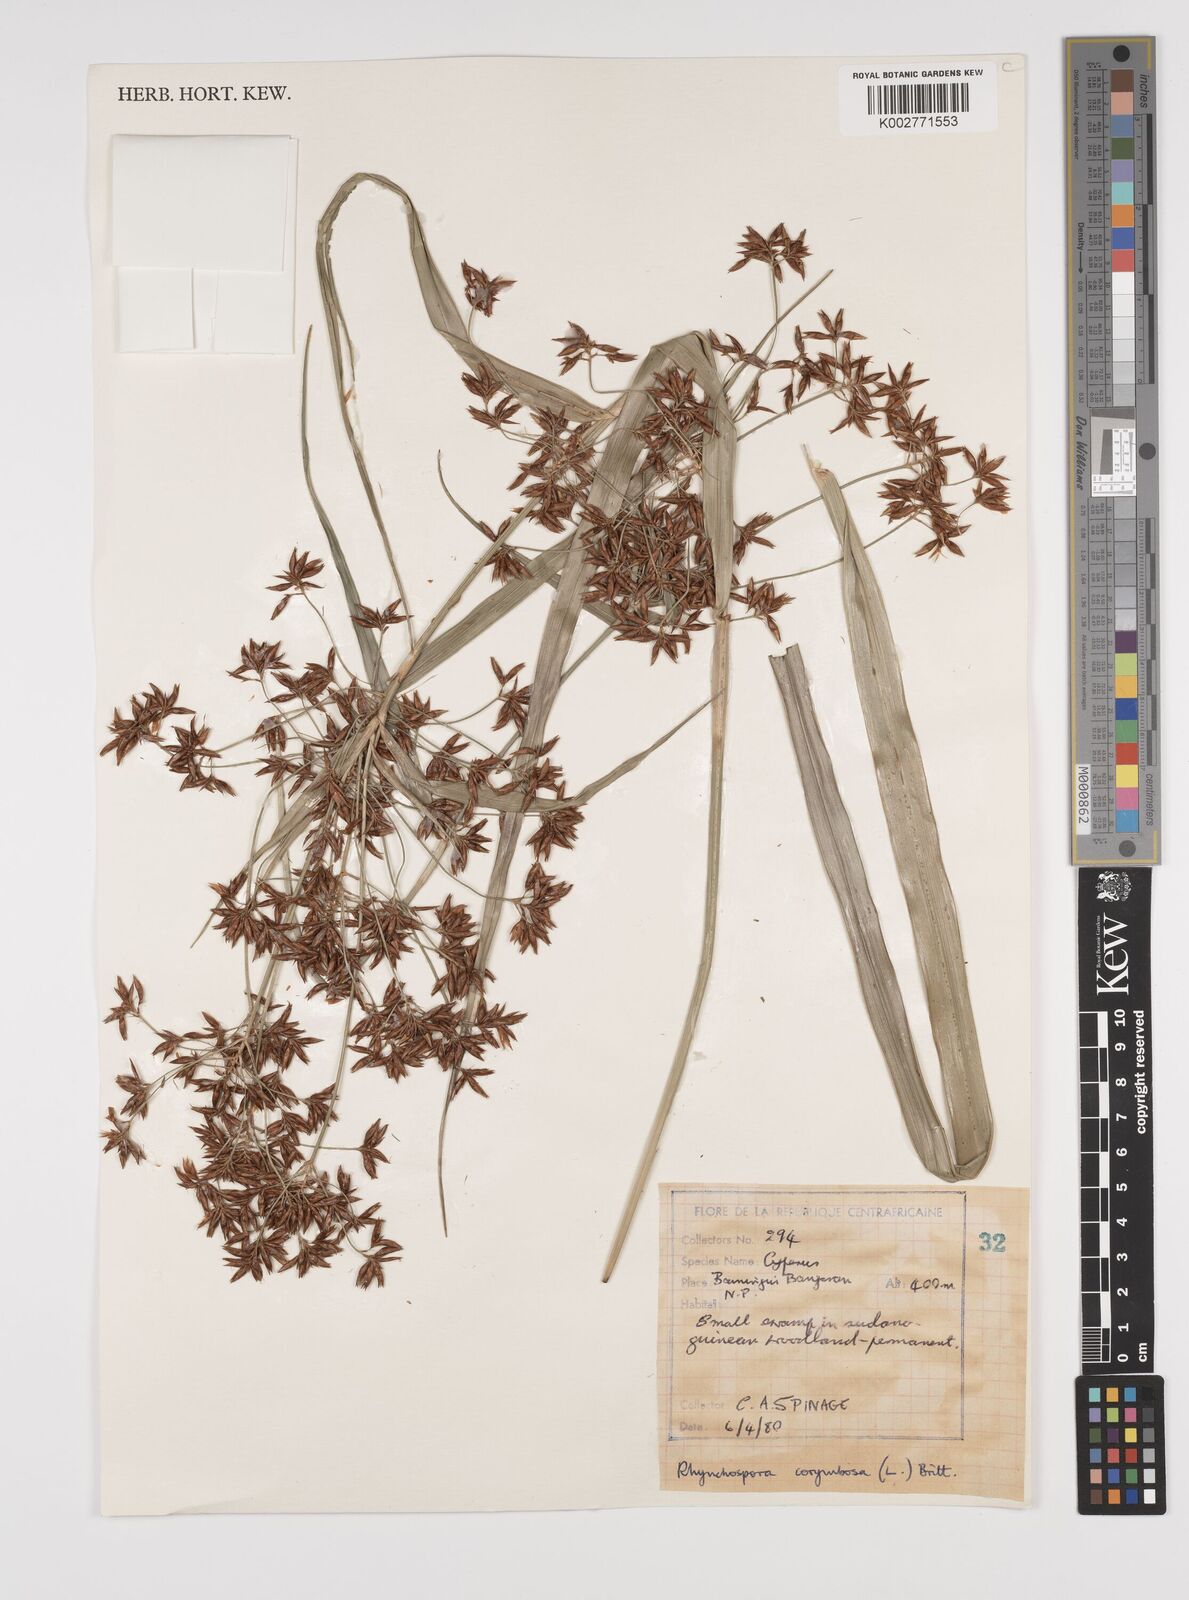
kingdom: Plantae
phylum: Tracheophyta
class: Liliopsida
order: Poales
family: Cyperaceae
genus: Rhynchospora
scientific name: Rhynchospora corymbosa
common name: Golden beak sedge
